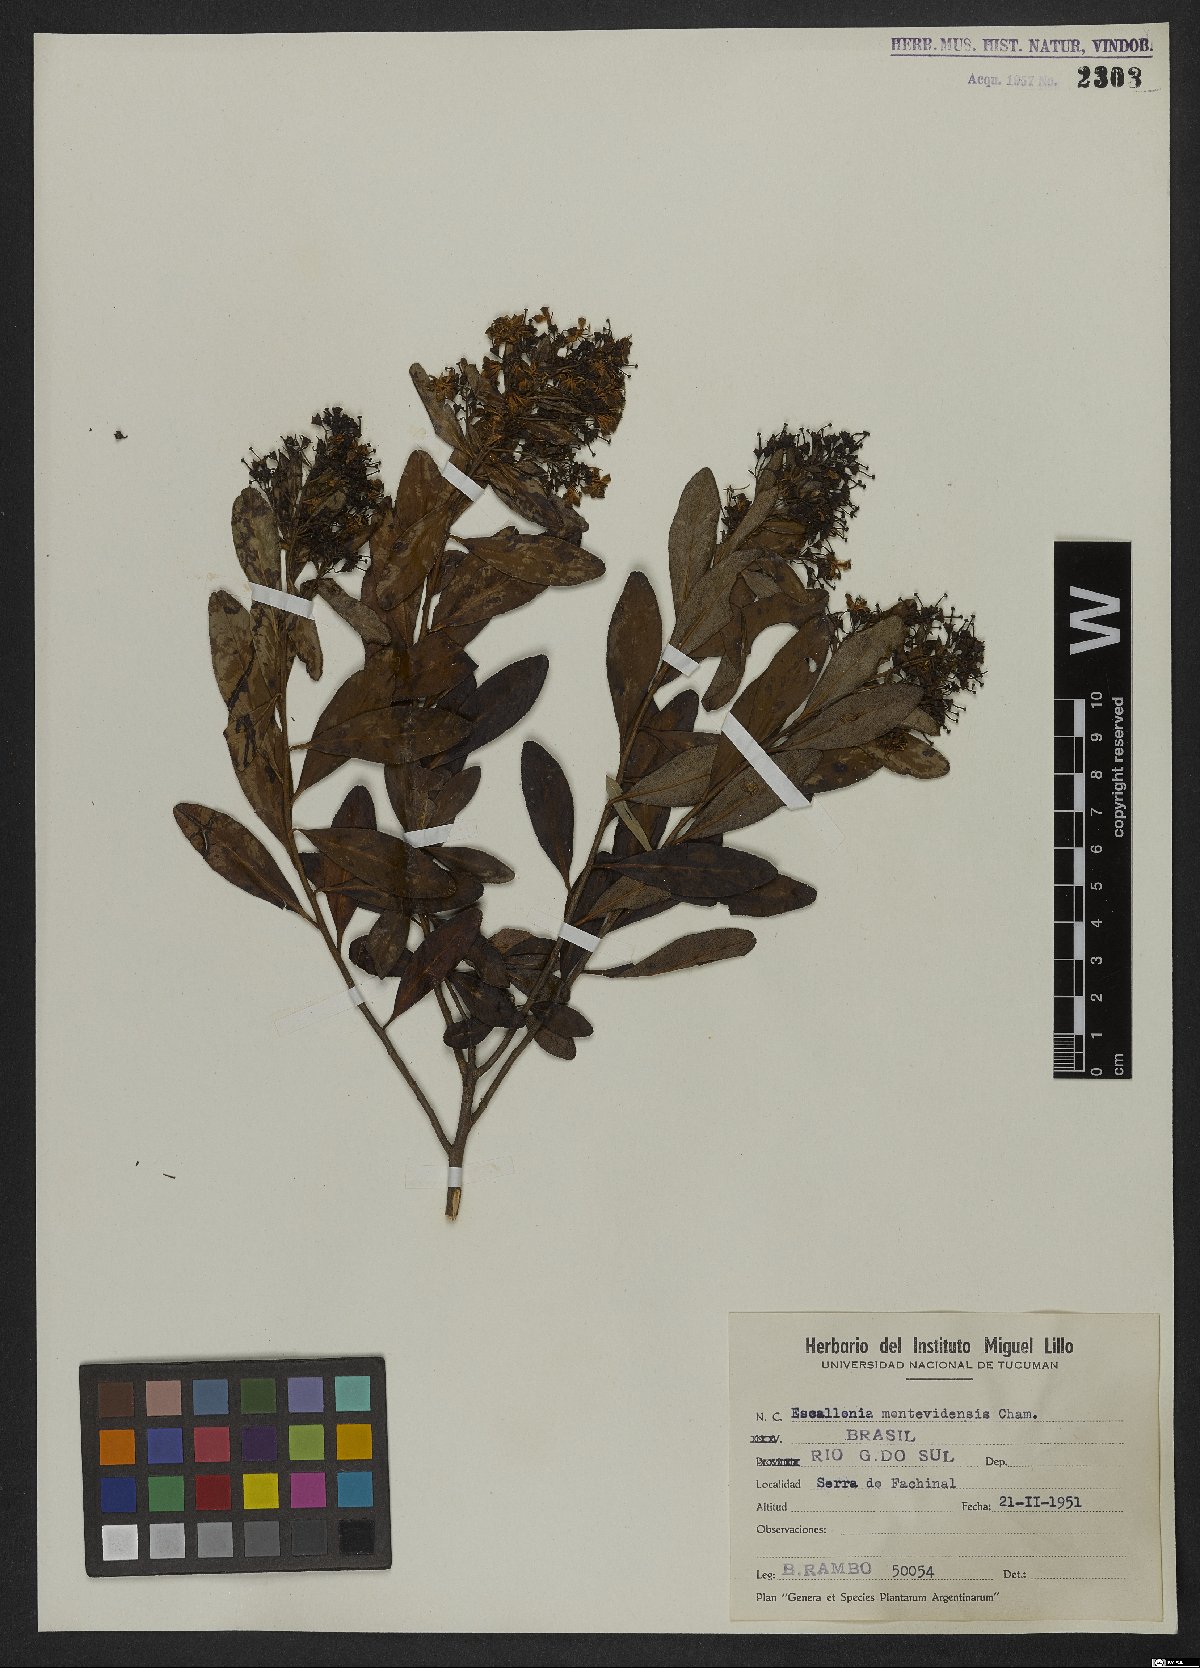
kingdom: Plantae
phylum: Tracheophyta
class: Magnoliopsida
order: Escalloniales
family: Escalloniaceae
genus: Escallonia
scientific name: Escallonia bifida
